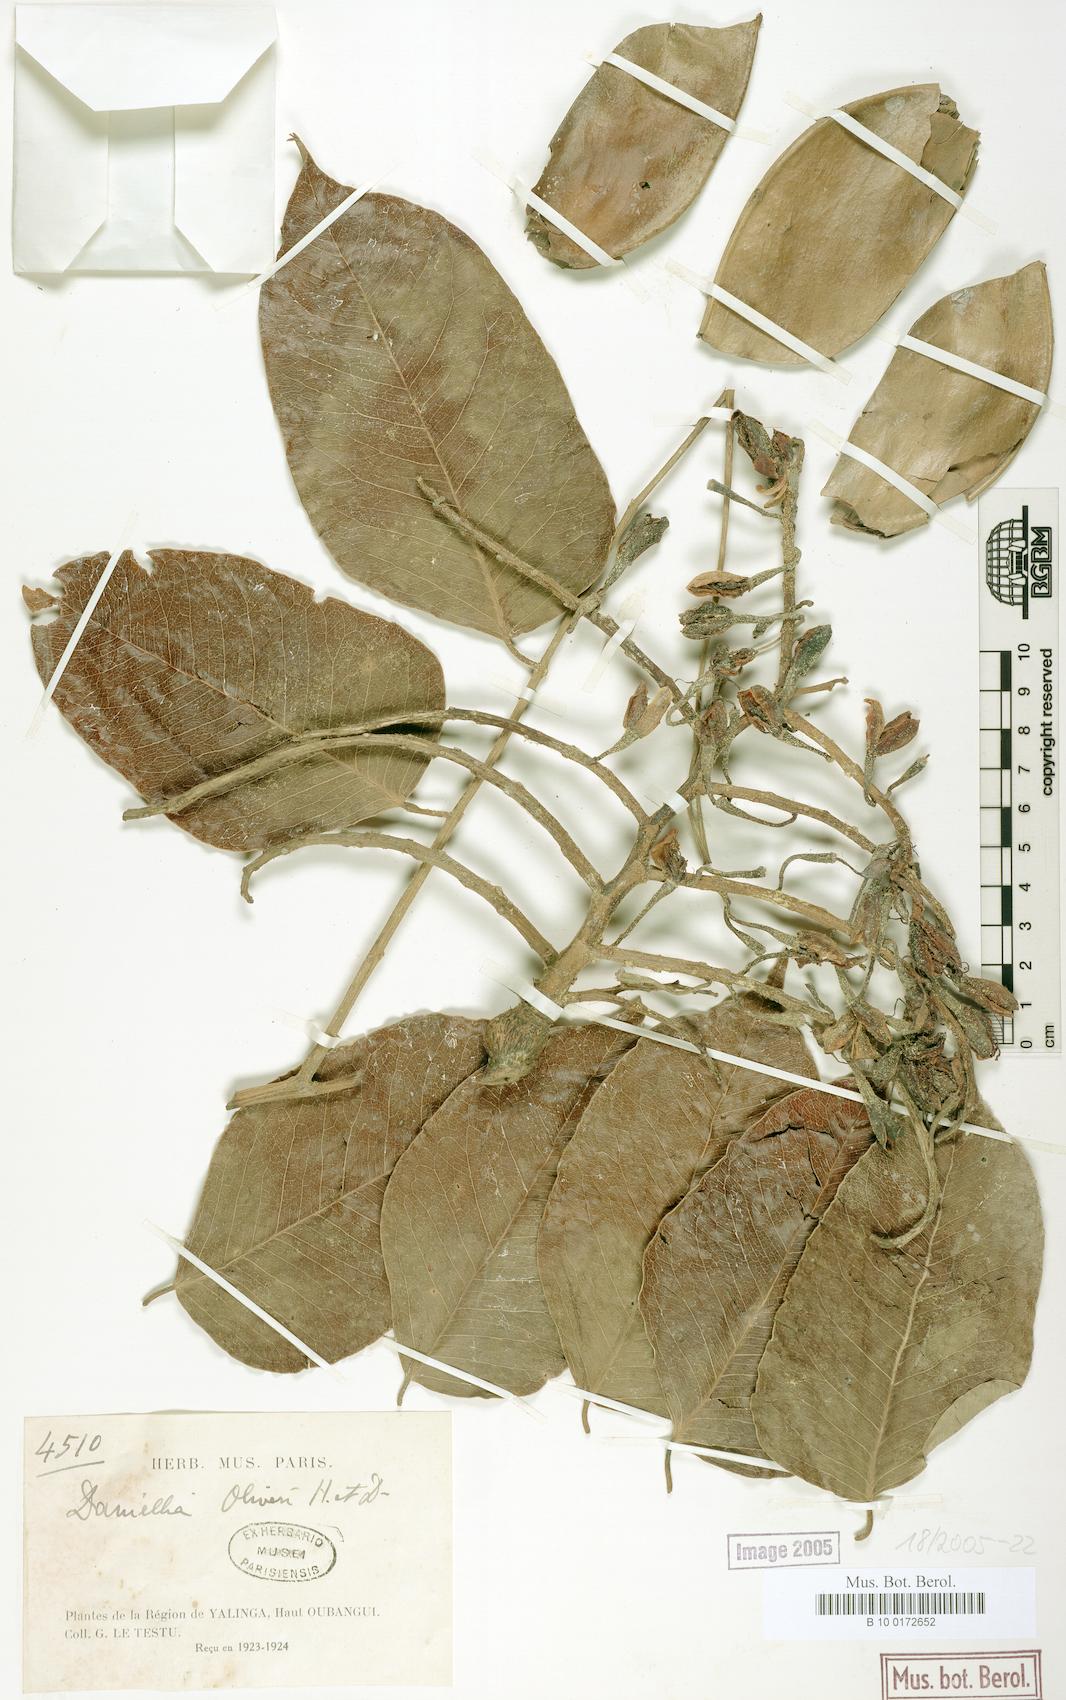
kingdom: Plantae
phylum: Tracheophyta
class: Magnoliopsida
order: Fabales
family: Fabaceae
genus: Daniellia
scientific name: Daniellia oliveri
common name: African copaiba balsamtree
